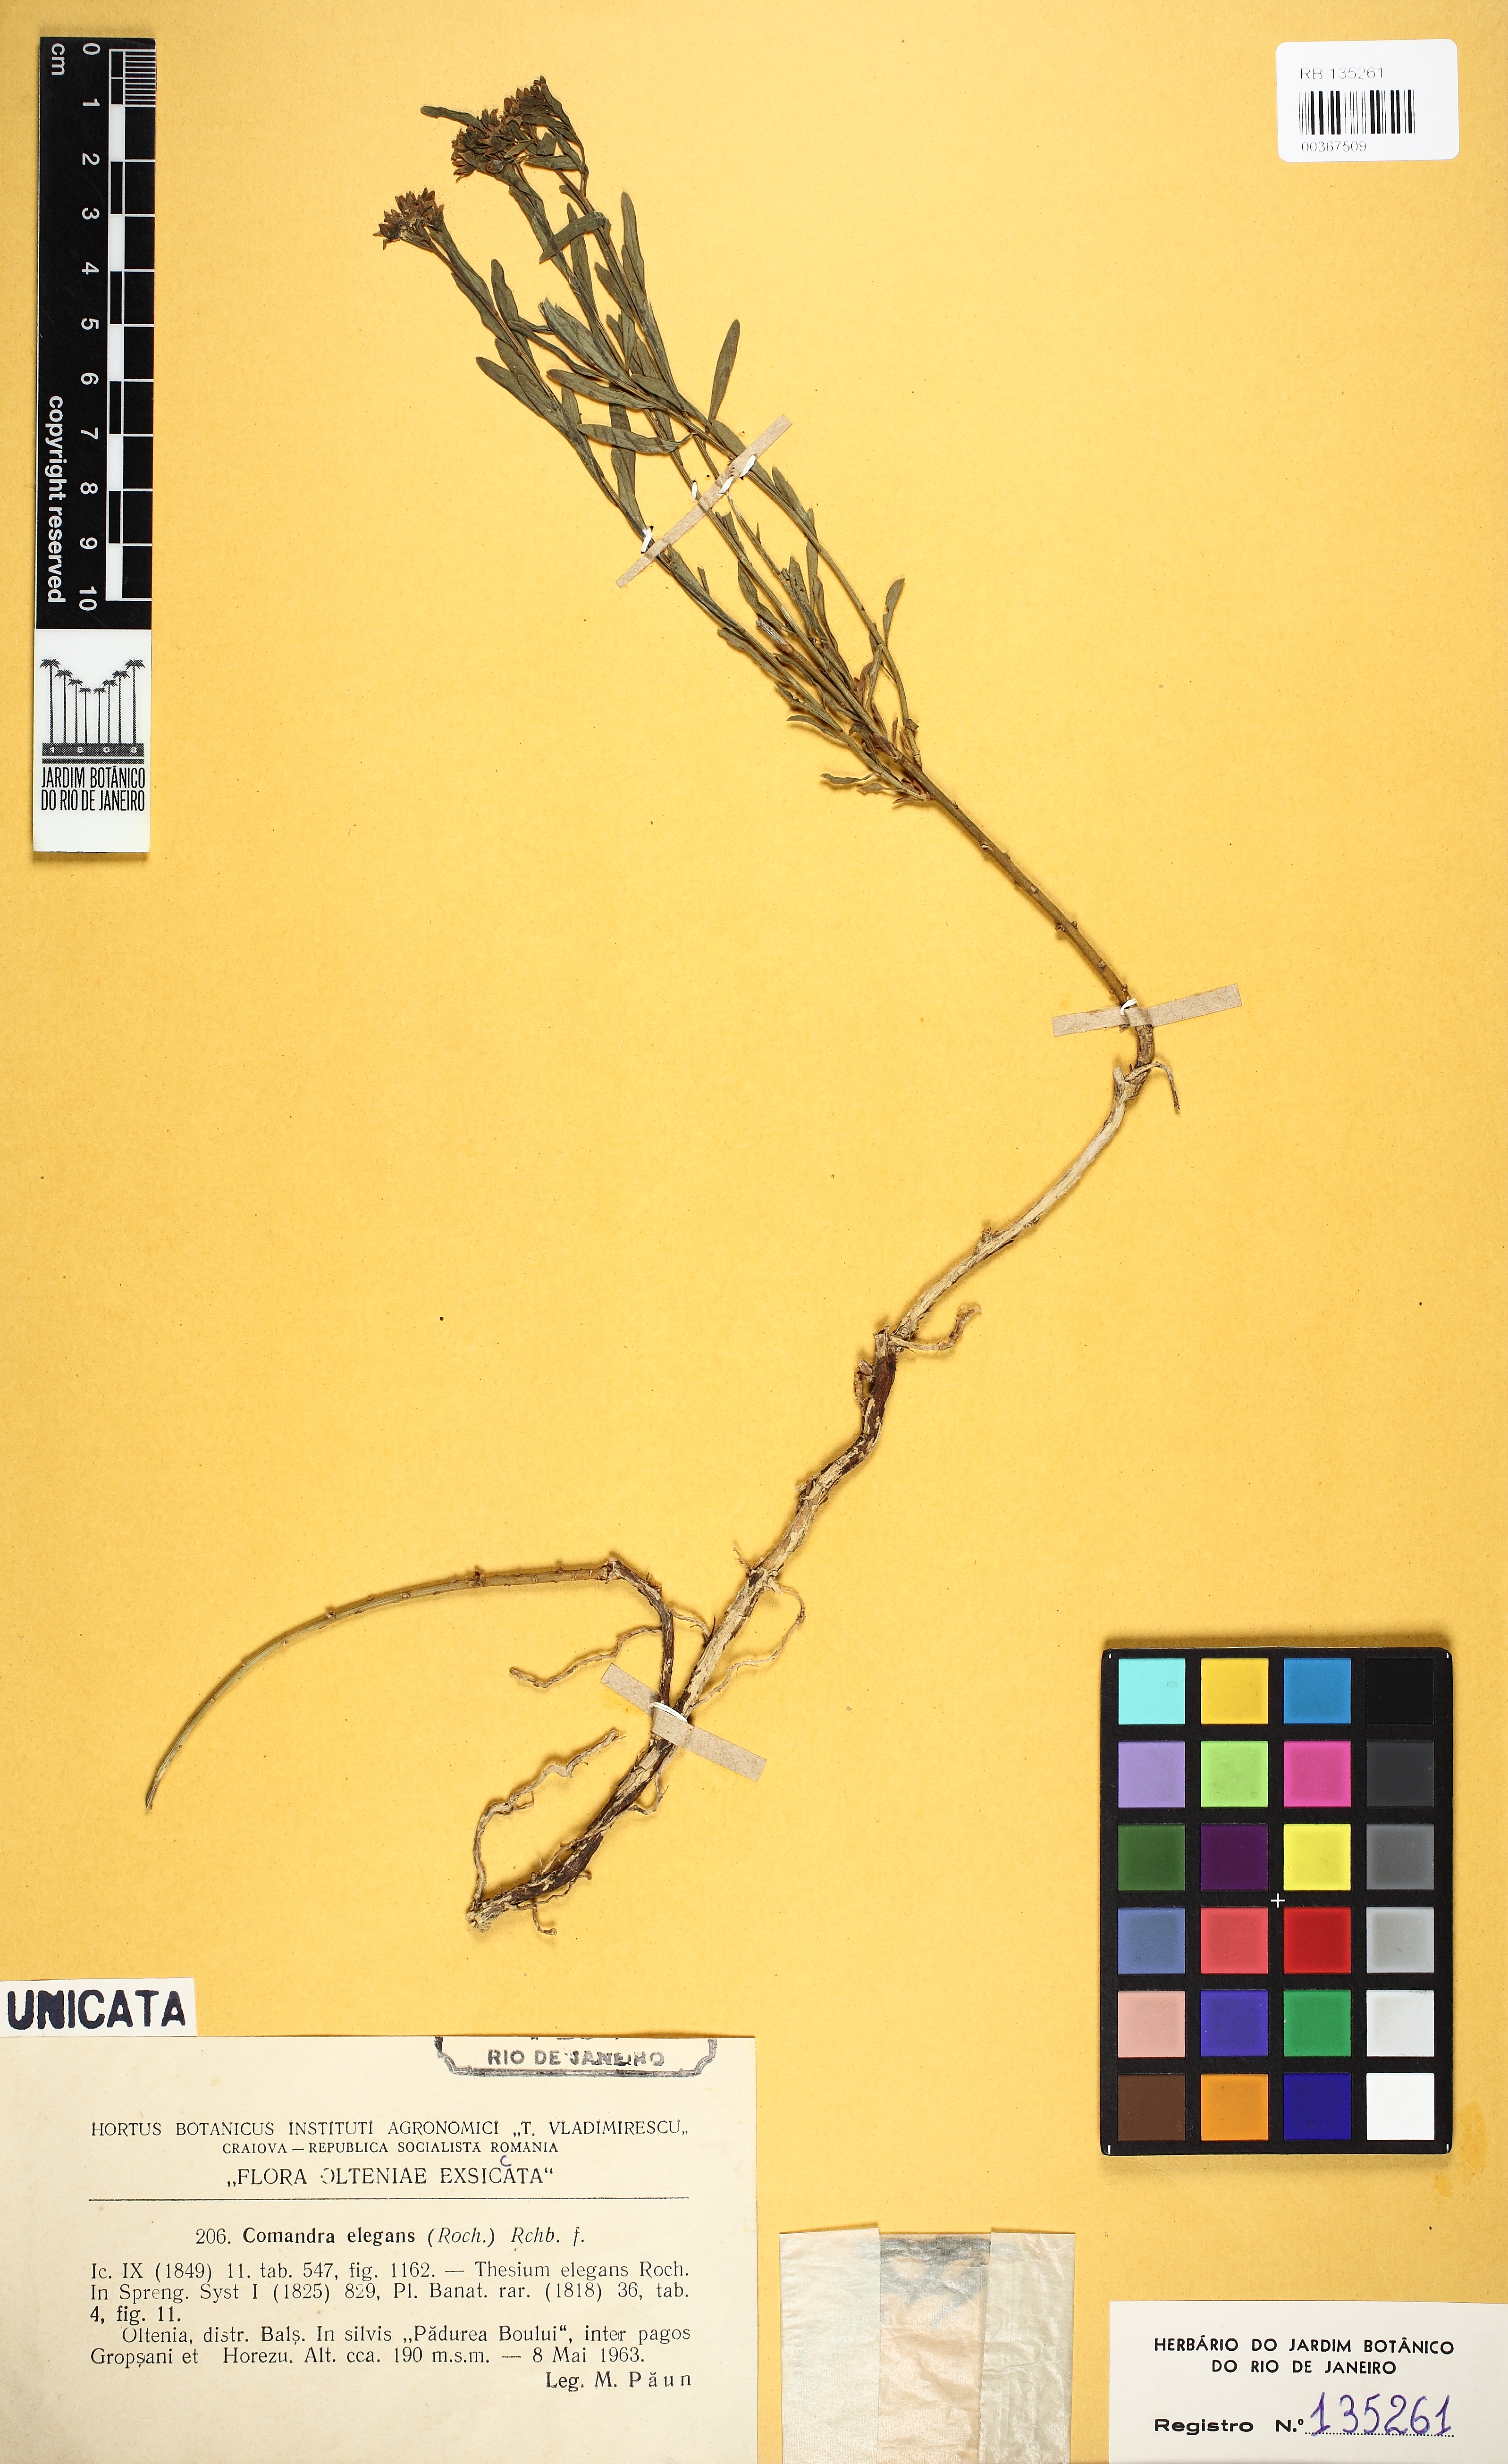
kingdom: Plantae
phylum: Tracheophyta
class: Magnoliopsida
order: Santalales
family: Comandraceae
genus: Comandra
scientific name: Comandra umbellata
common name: Bastard toadflax
